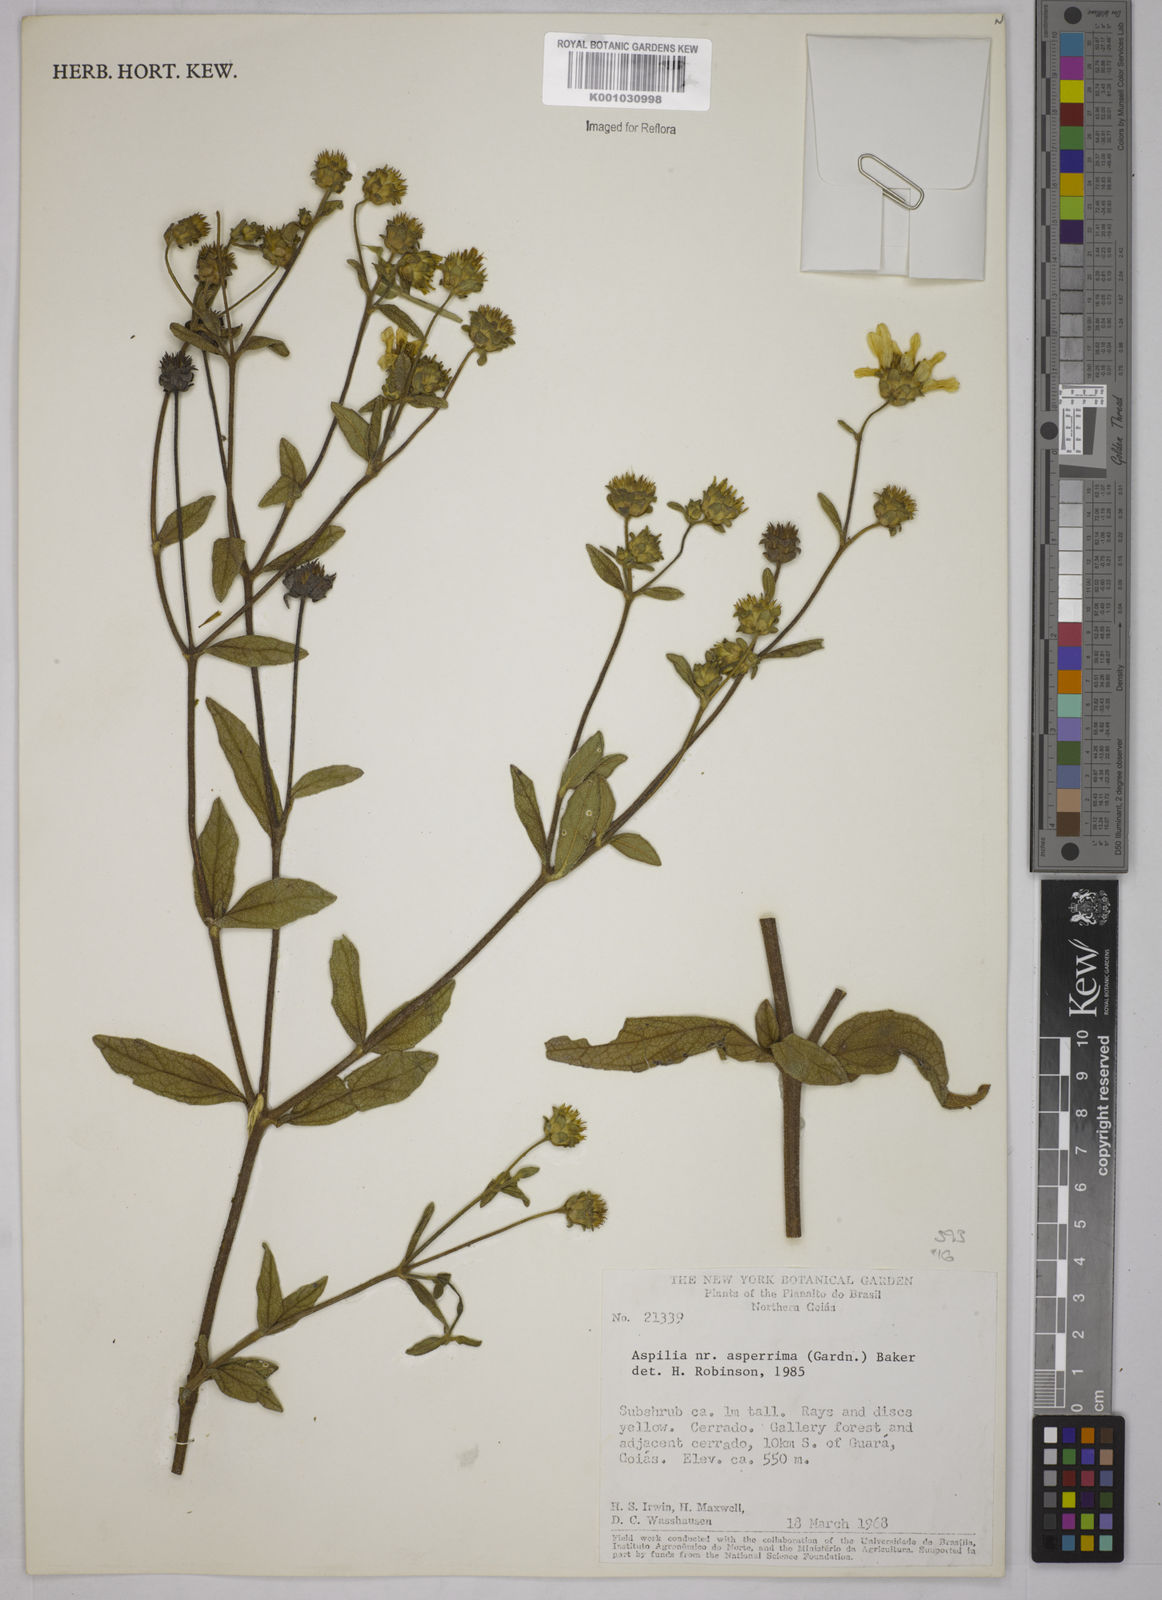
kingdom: Plantae
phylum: Tracheophyta
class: Magnoliopsida
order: Asterales
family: Asteraceae
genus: Wedelia
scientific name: Wedelia gardneri
